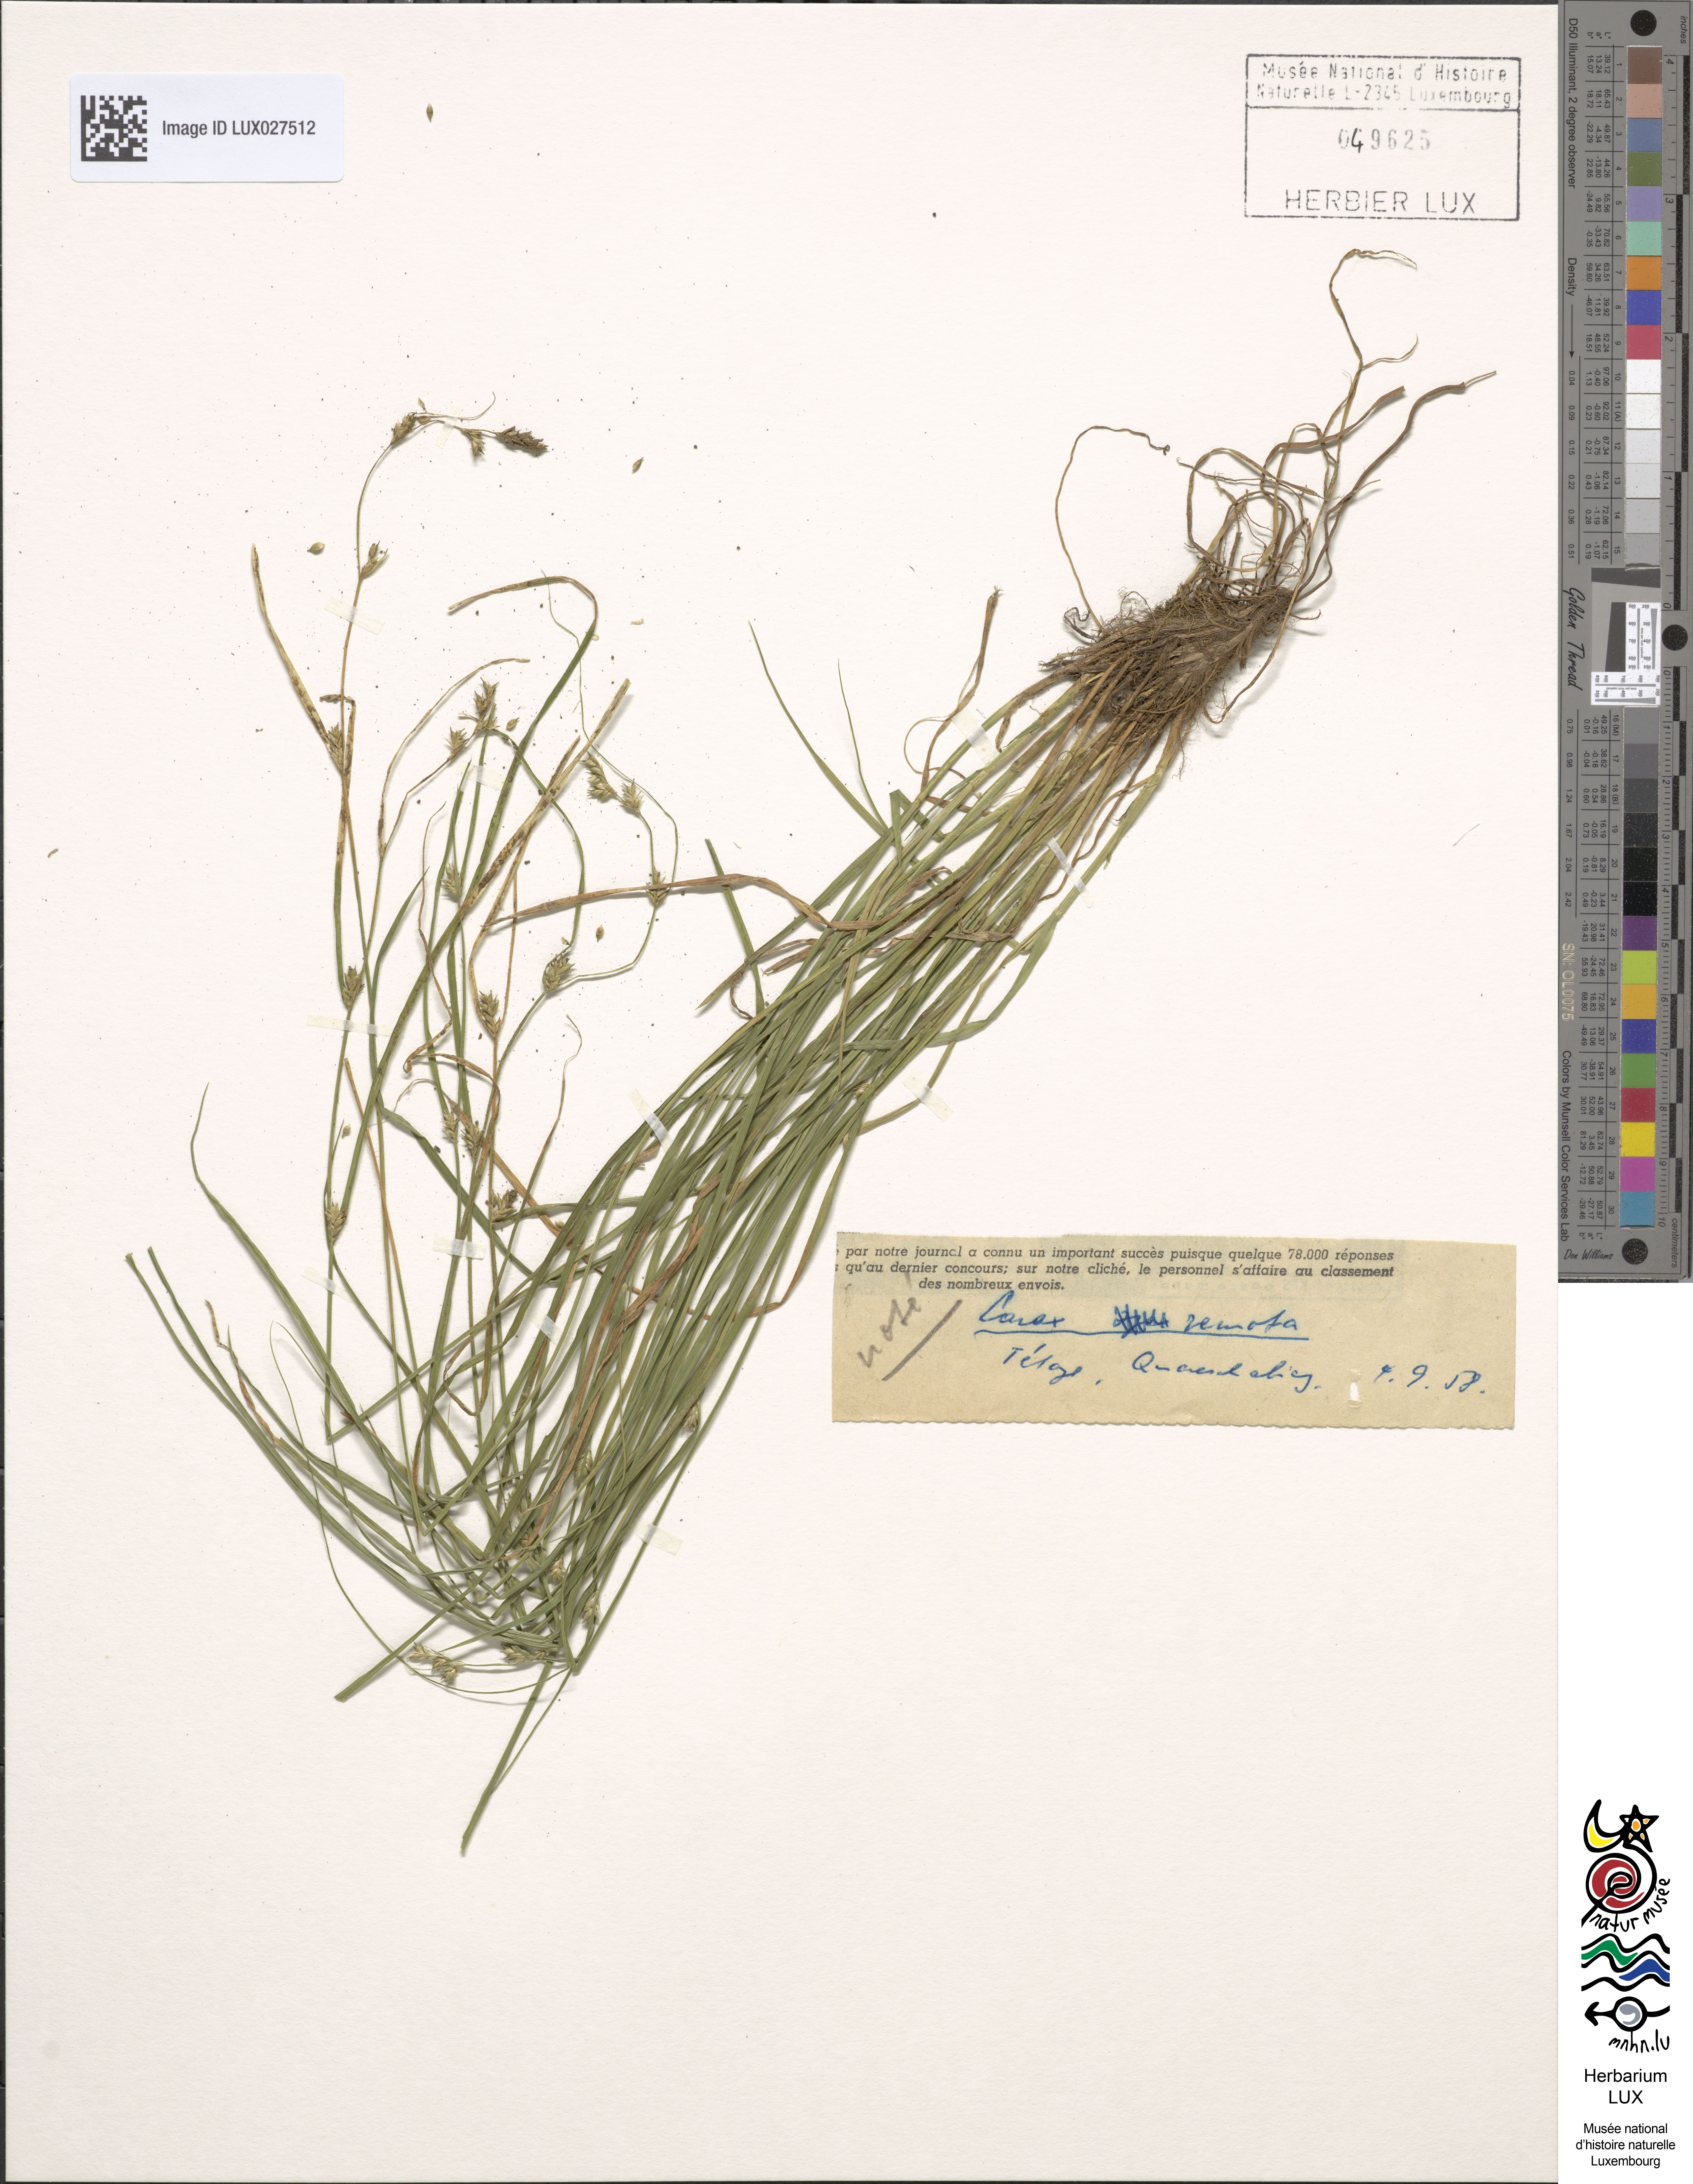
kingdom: Plantae
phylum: Tracheophyta
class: Liliopsida
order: Poales
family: Cyperaceae
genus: Carex
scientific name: Carex remota
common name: Remote sedge
